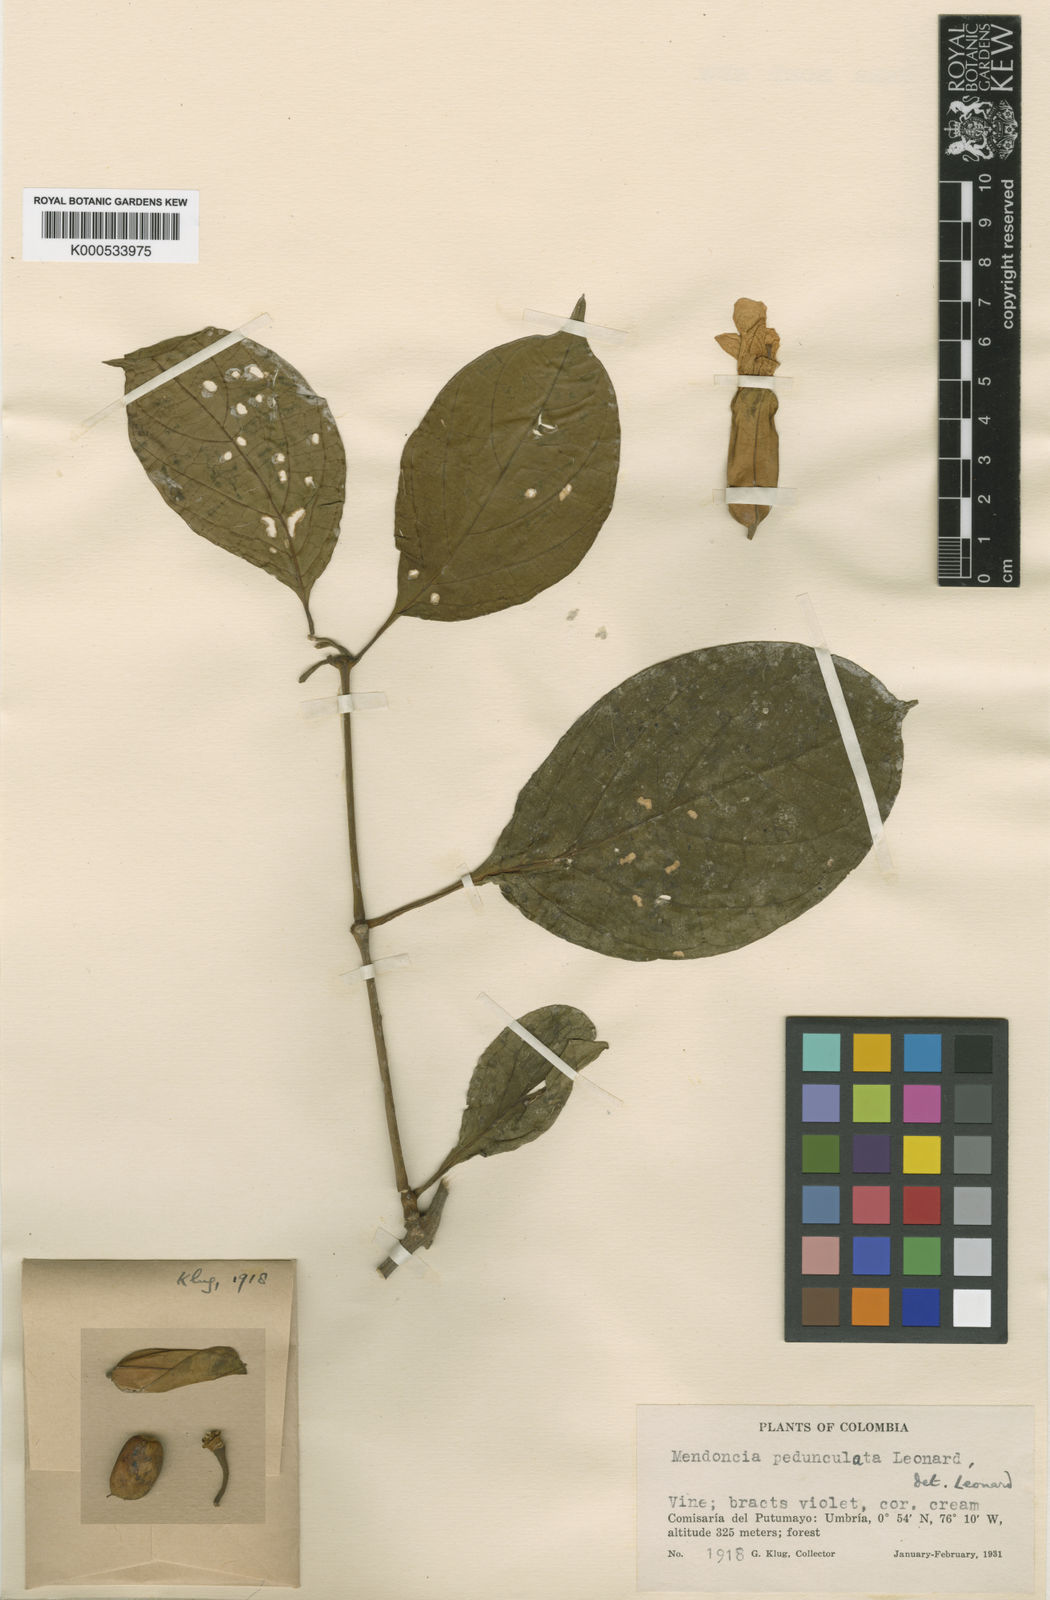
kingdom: Plantae
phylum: Tracheophyta
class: Magnoliopsida
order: Lamiales
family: Acanthaceae
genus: Mendoncia
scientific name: Mendoncia pedunculata
